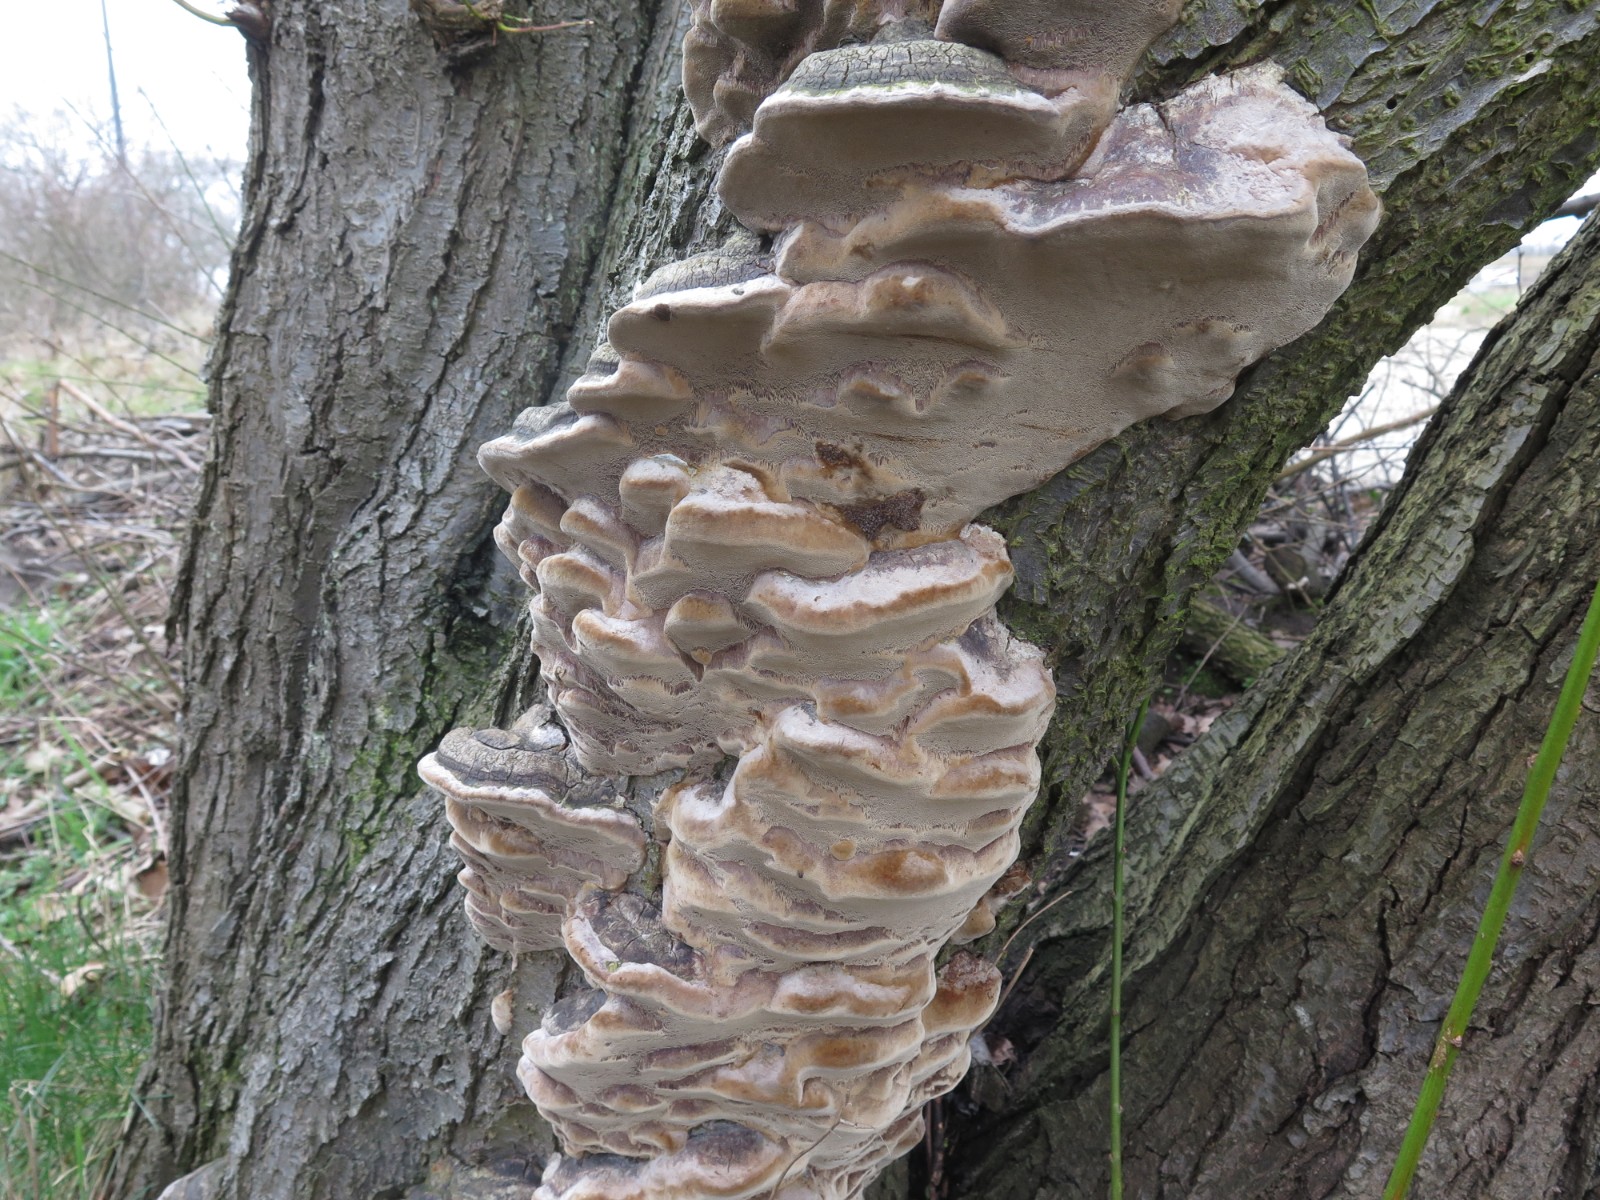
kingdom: Fungi
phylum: Basidiomycota
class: Agaricomycetes
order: Hymenochaetales
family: Hymenochaetaceae
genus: Phellinus
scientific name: Phellinus pomaceus
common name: blomme-ildporesvamp
